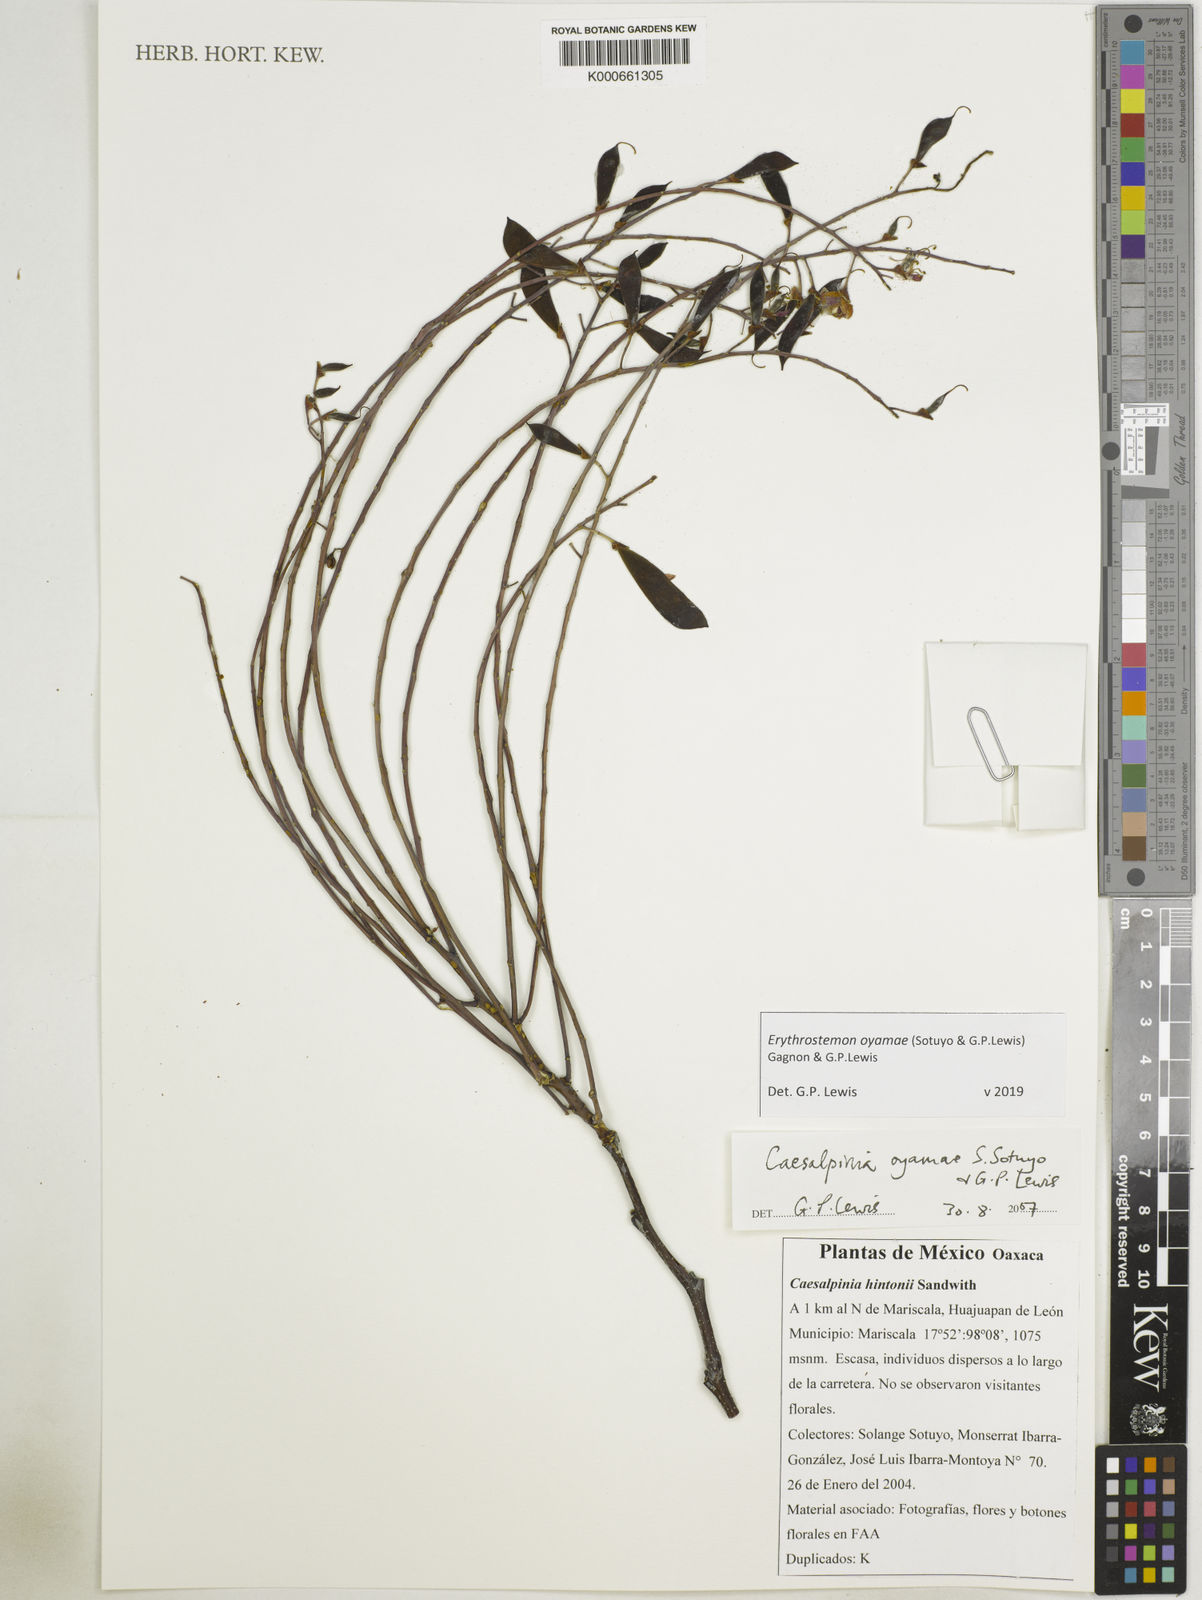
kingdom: Plantae
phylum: Tracheophyta
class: Magnoliopsida
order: Fabales
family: Fabaceae
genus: Erythrostemon
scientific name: Erythrostemon oyamae
